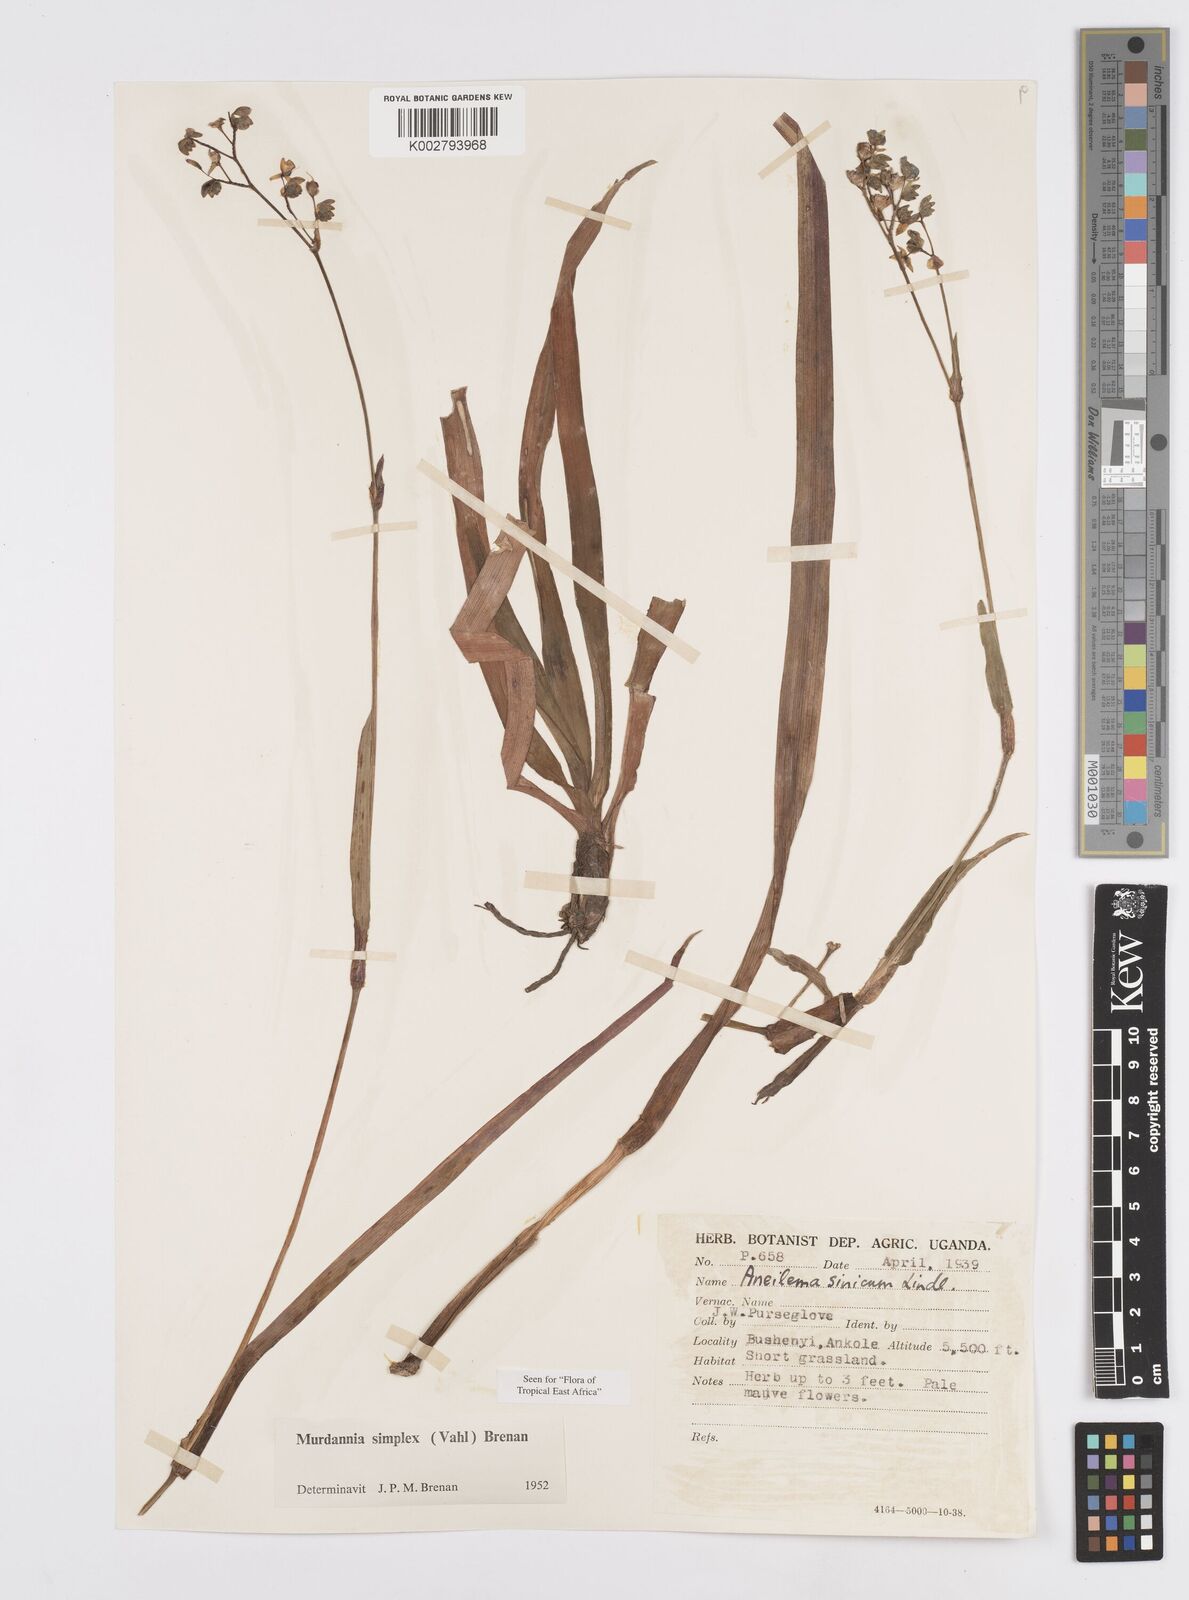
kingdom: Plantae
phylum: Tracheophyta
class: Liliopsida
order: Commelinales
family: Commelinaceae
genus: Murdannia
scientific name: Murdannia simplex
